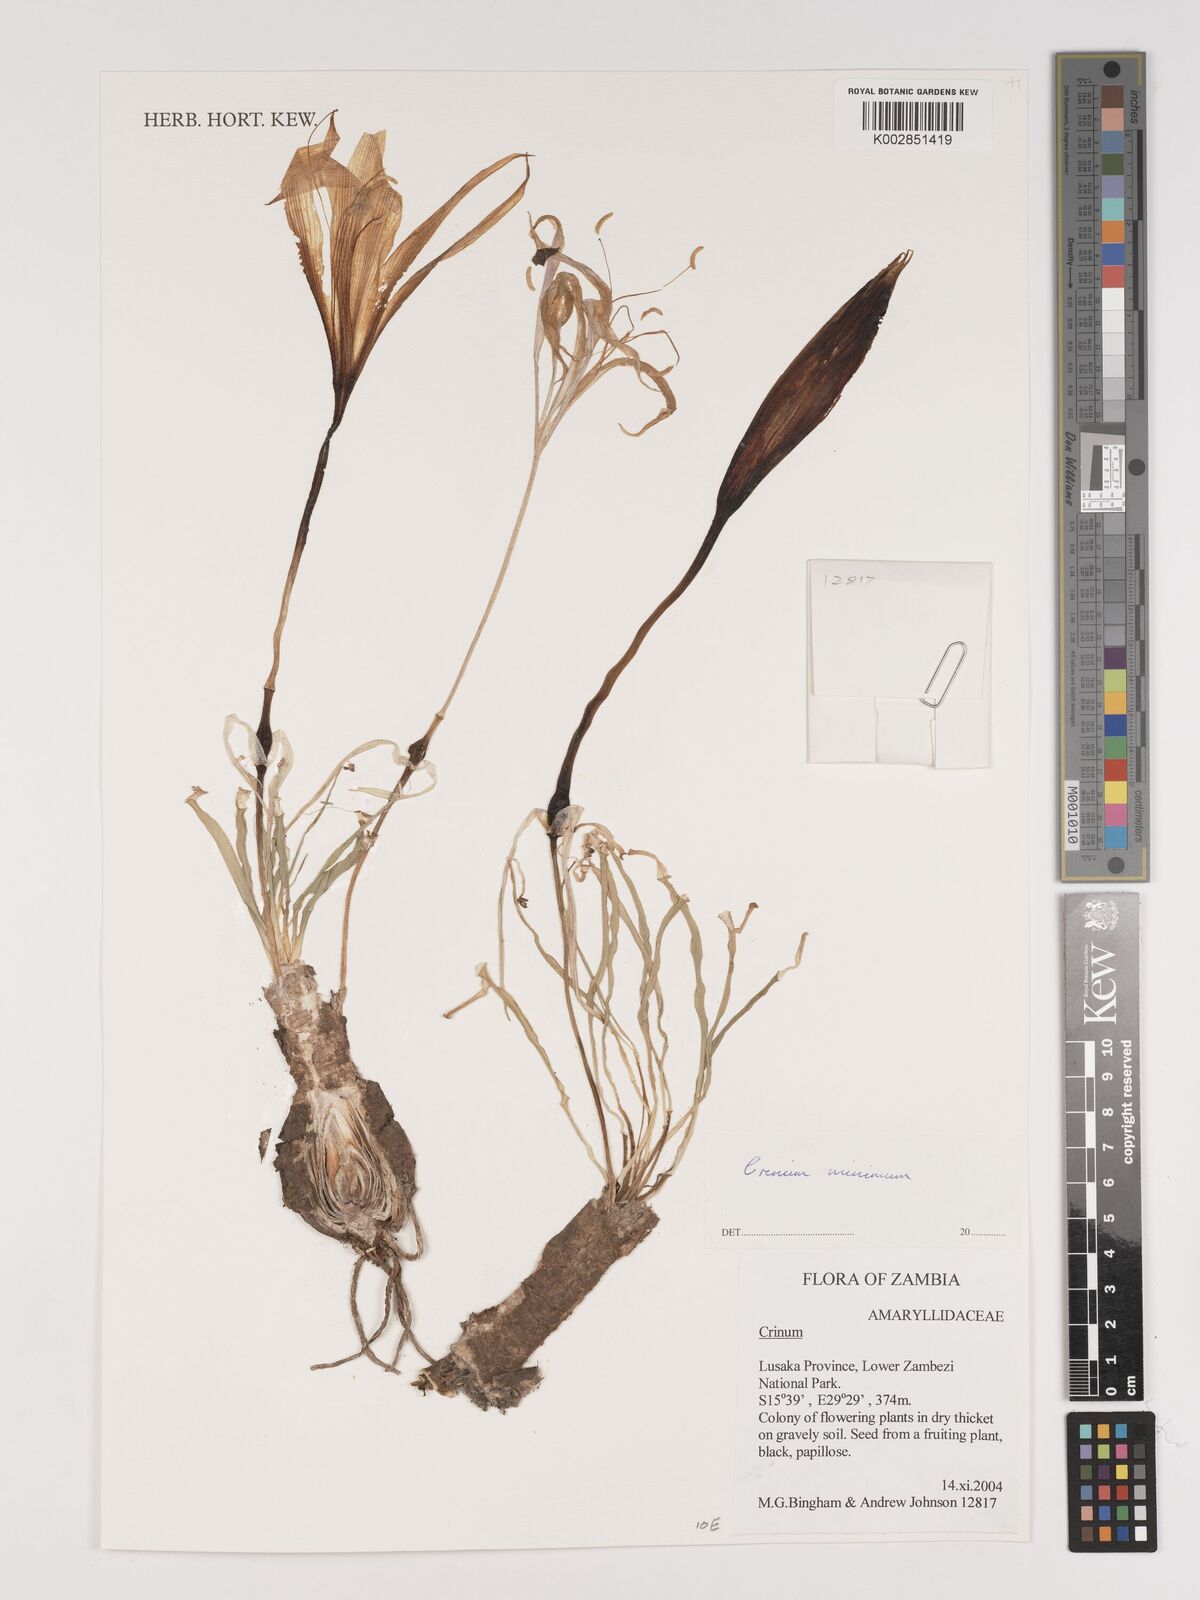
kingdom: Plantae
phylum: Tracheophyta
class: Liliopsida
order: Asparagales
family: Amaryllidaceae
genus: Crinum
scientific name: Crinum minimum
